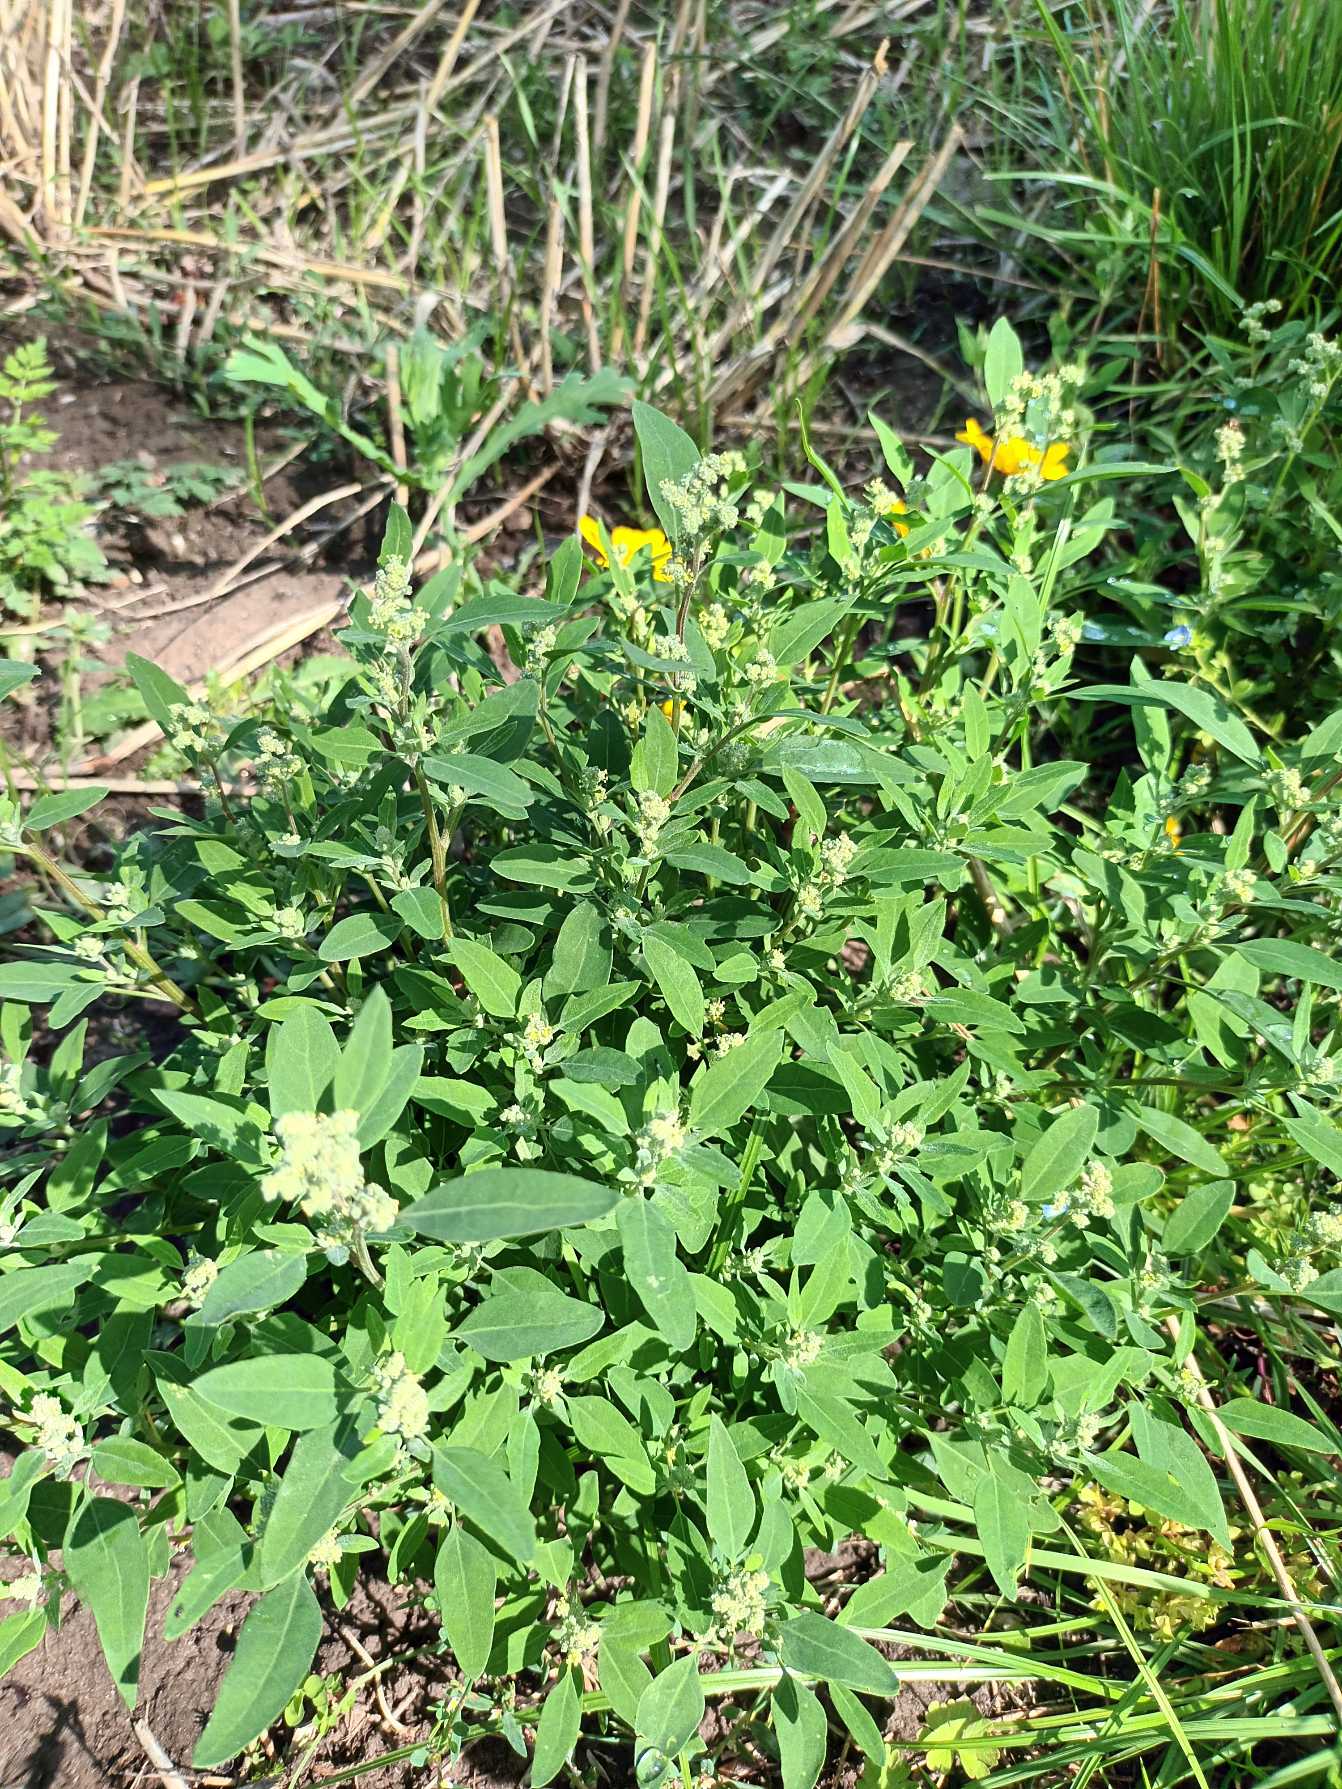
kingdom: Plantae
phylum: Tracheophyta
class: Magnoliopsida
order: Caryophyllales
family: Amaranthaceae
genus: Chenopodium
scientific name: Chenopodium album
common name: Hvidmelet gåsefod
